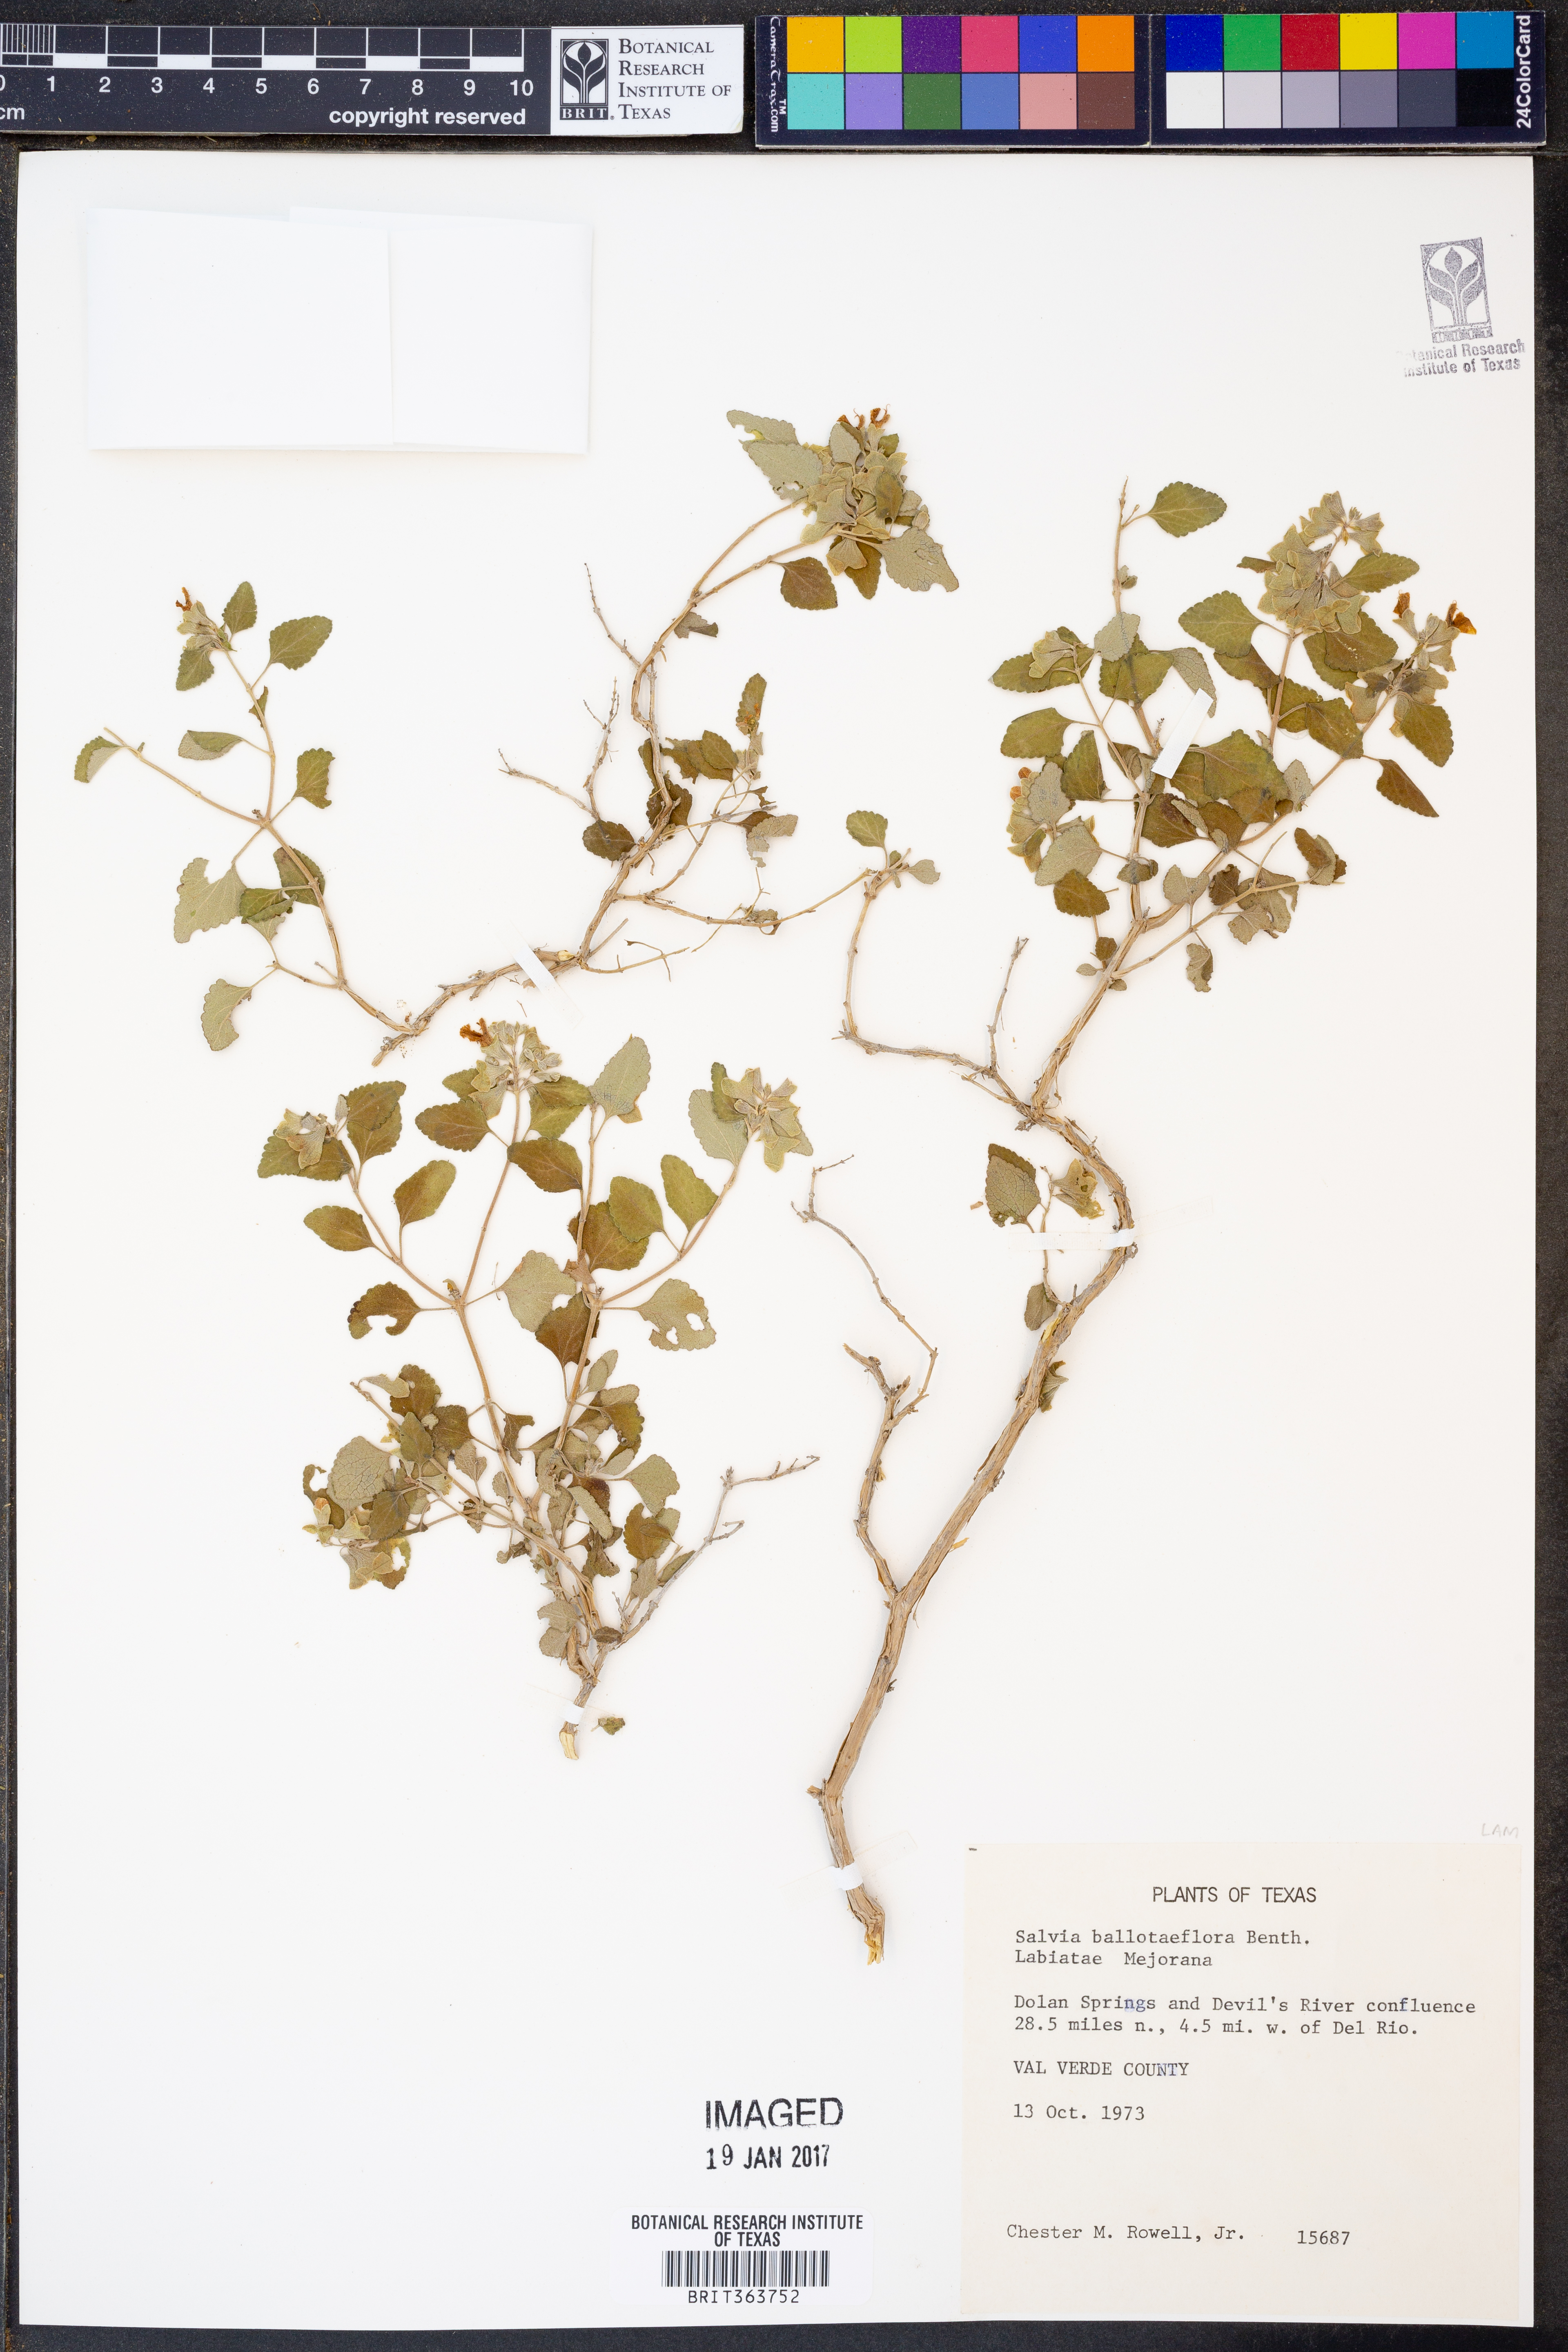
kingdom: Plantae
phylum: Tracheophyta
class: Magnoliopsida
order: Lamiales
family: Lamiaceae
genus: Salvia
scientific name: Salvia ballotiflora
